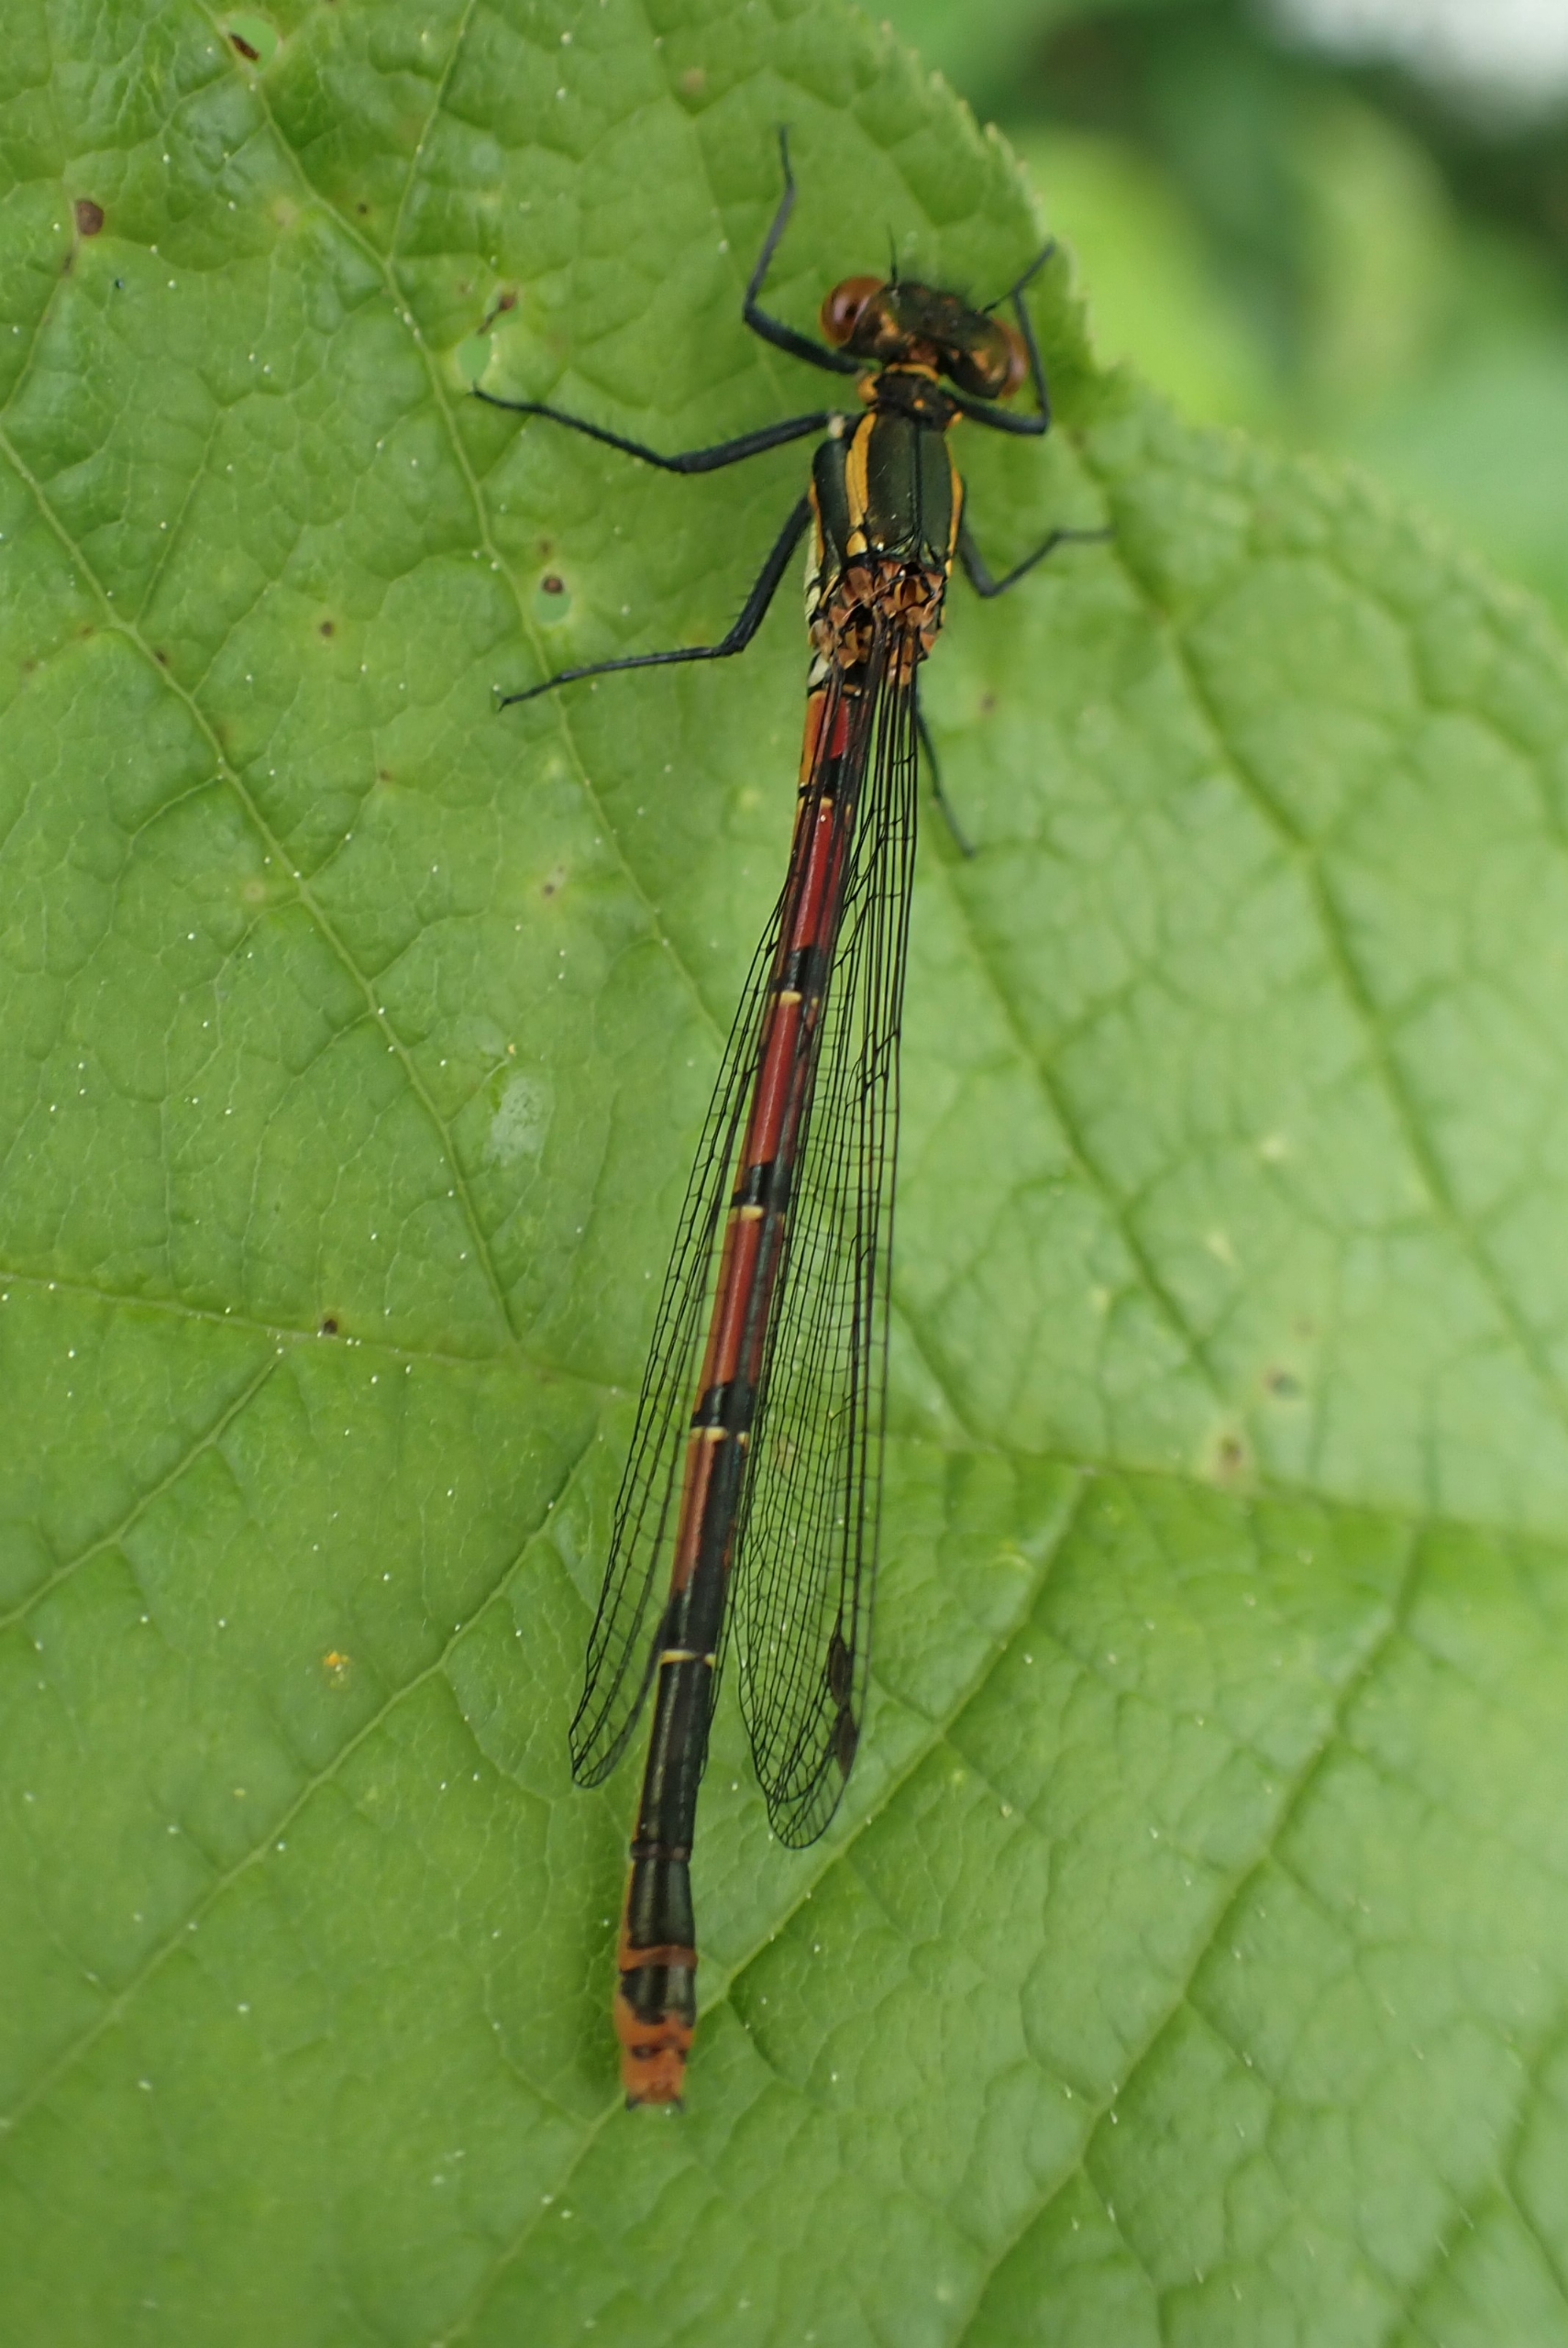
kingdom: Animalia
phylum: Arthropoda
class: Insecta
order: Odonata
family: Coenagrionidae
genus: Pyrrhosoma
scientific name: Pyrrhosoma nymphula
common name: Rød vandnymfe
